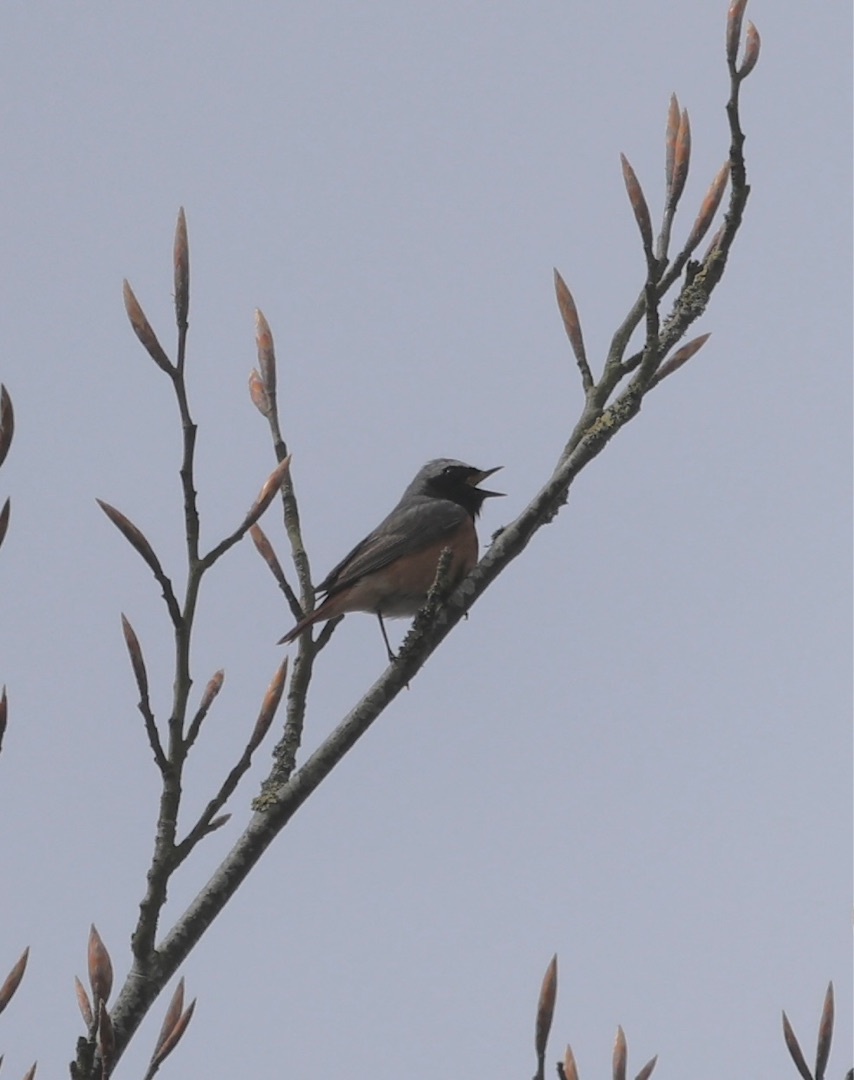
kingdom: Animalia
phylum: Chordata
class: Aves
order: Passeriformes
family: Muscicapidae
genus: Phoenicurus
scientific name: Phoenicurus phoenicurus
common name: Rødstjert
